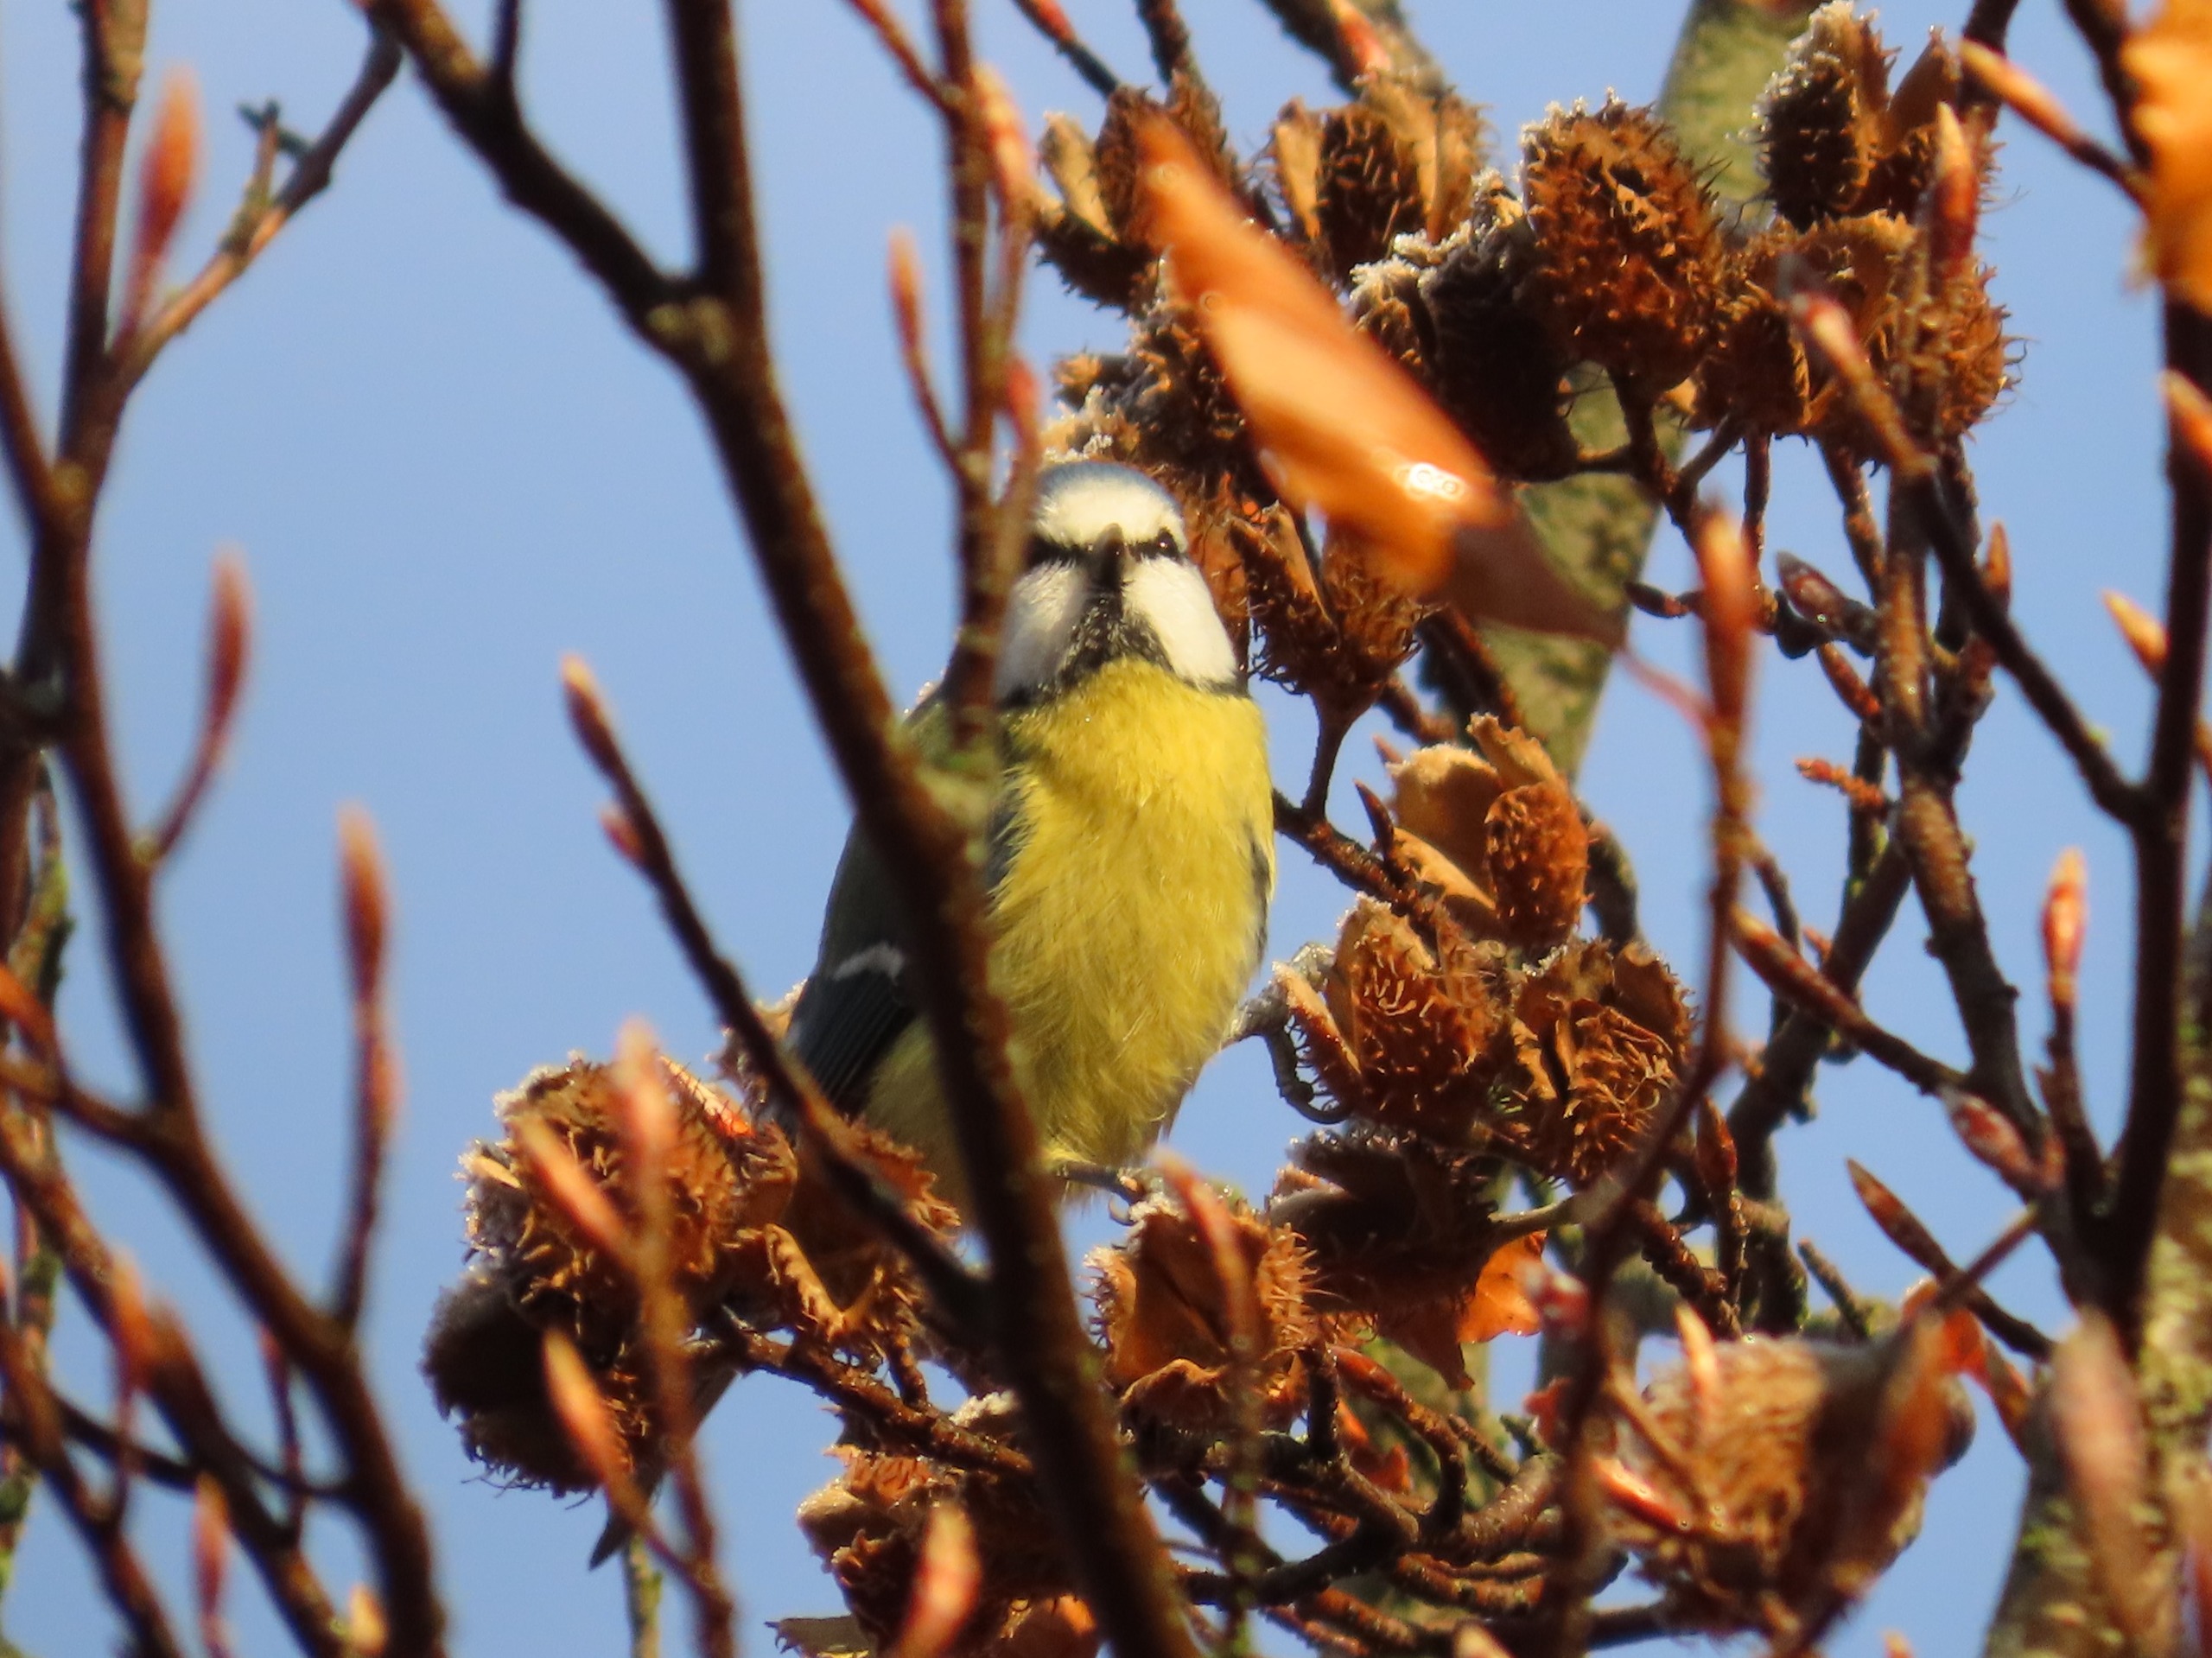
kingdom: Animalia
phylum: Chordata
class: Aves
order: Passeriformes
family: Paridae
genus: Cyanistes
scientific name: Cyanistes caeruleus
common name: Blåmejse
